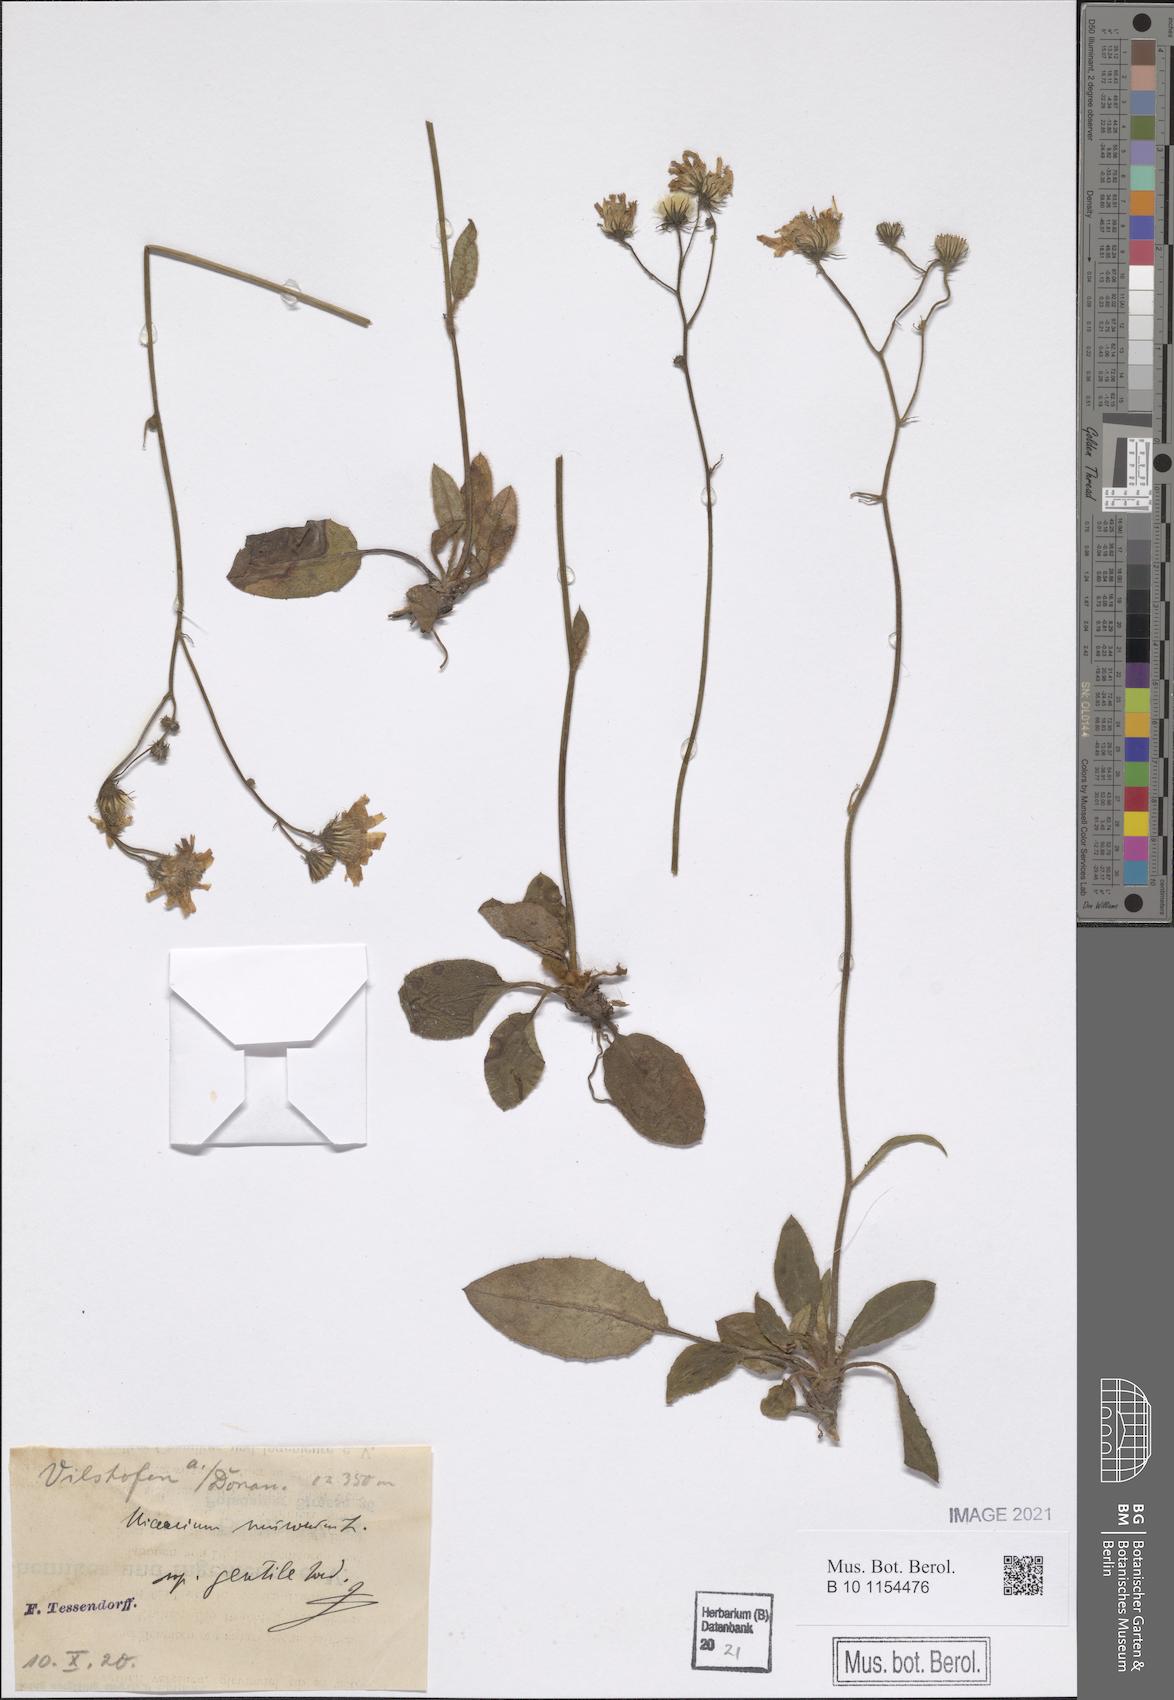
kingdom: Plantae
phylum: Tracheophyta
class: Magnoliopsida
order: Asterales
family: Asteraceae
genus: Hieracium
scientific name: Hieracium murorum
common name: Wall hawkweed
